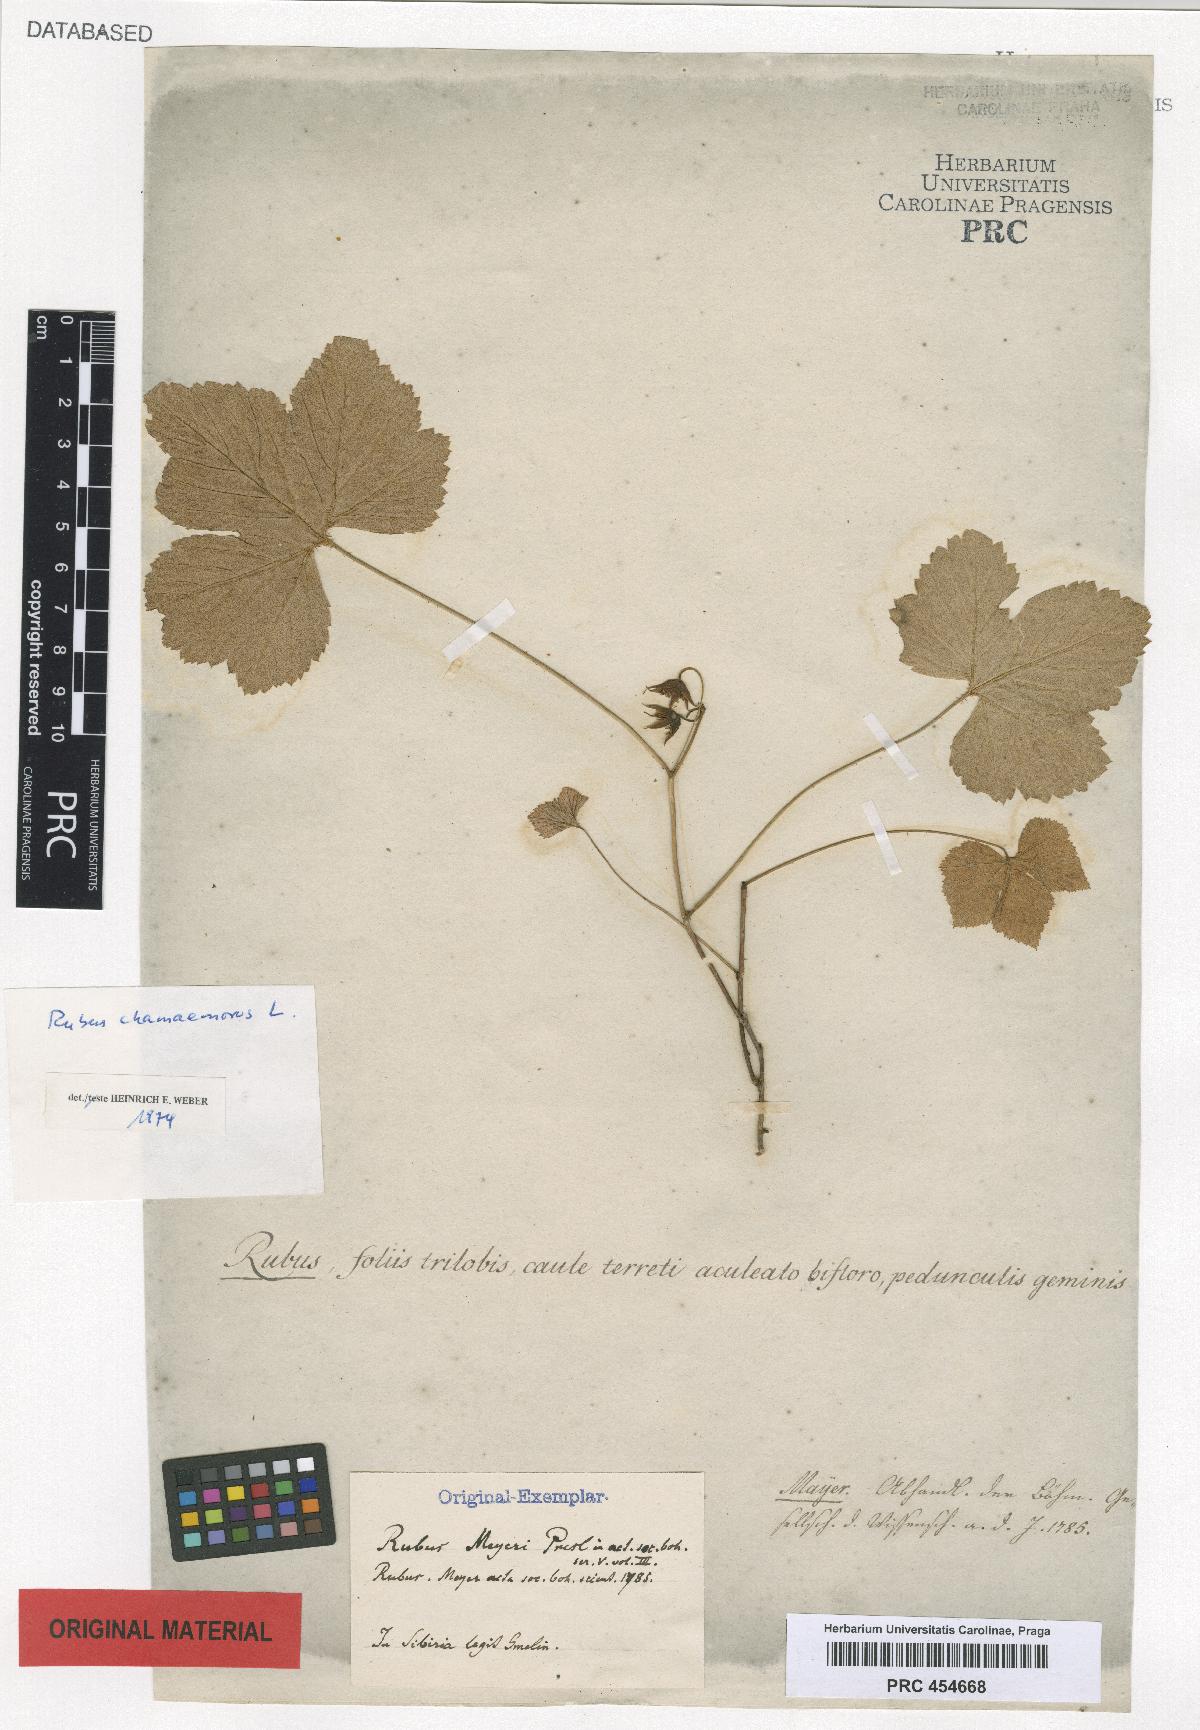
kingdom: Plantae
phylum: Tracheophyta
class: Magnoliopsida
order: Rosales
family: Rosaceae
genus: Rubus
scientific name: Rubus chamaemorus
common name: Cloudberry
